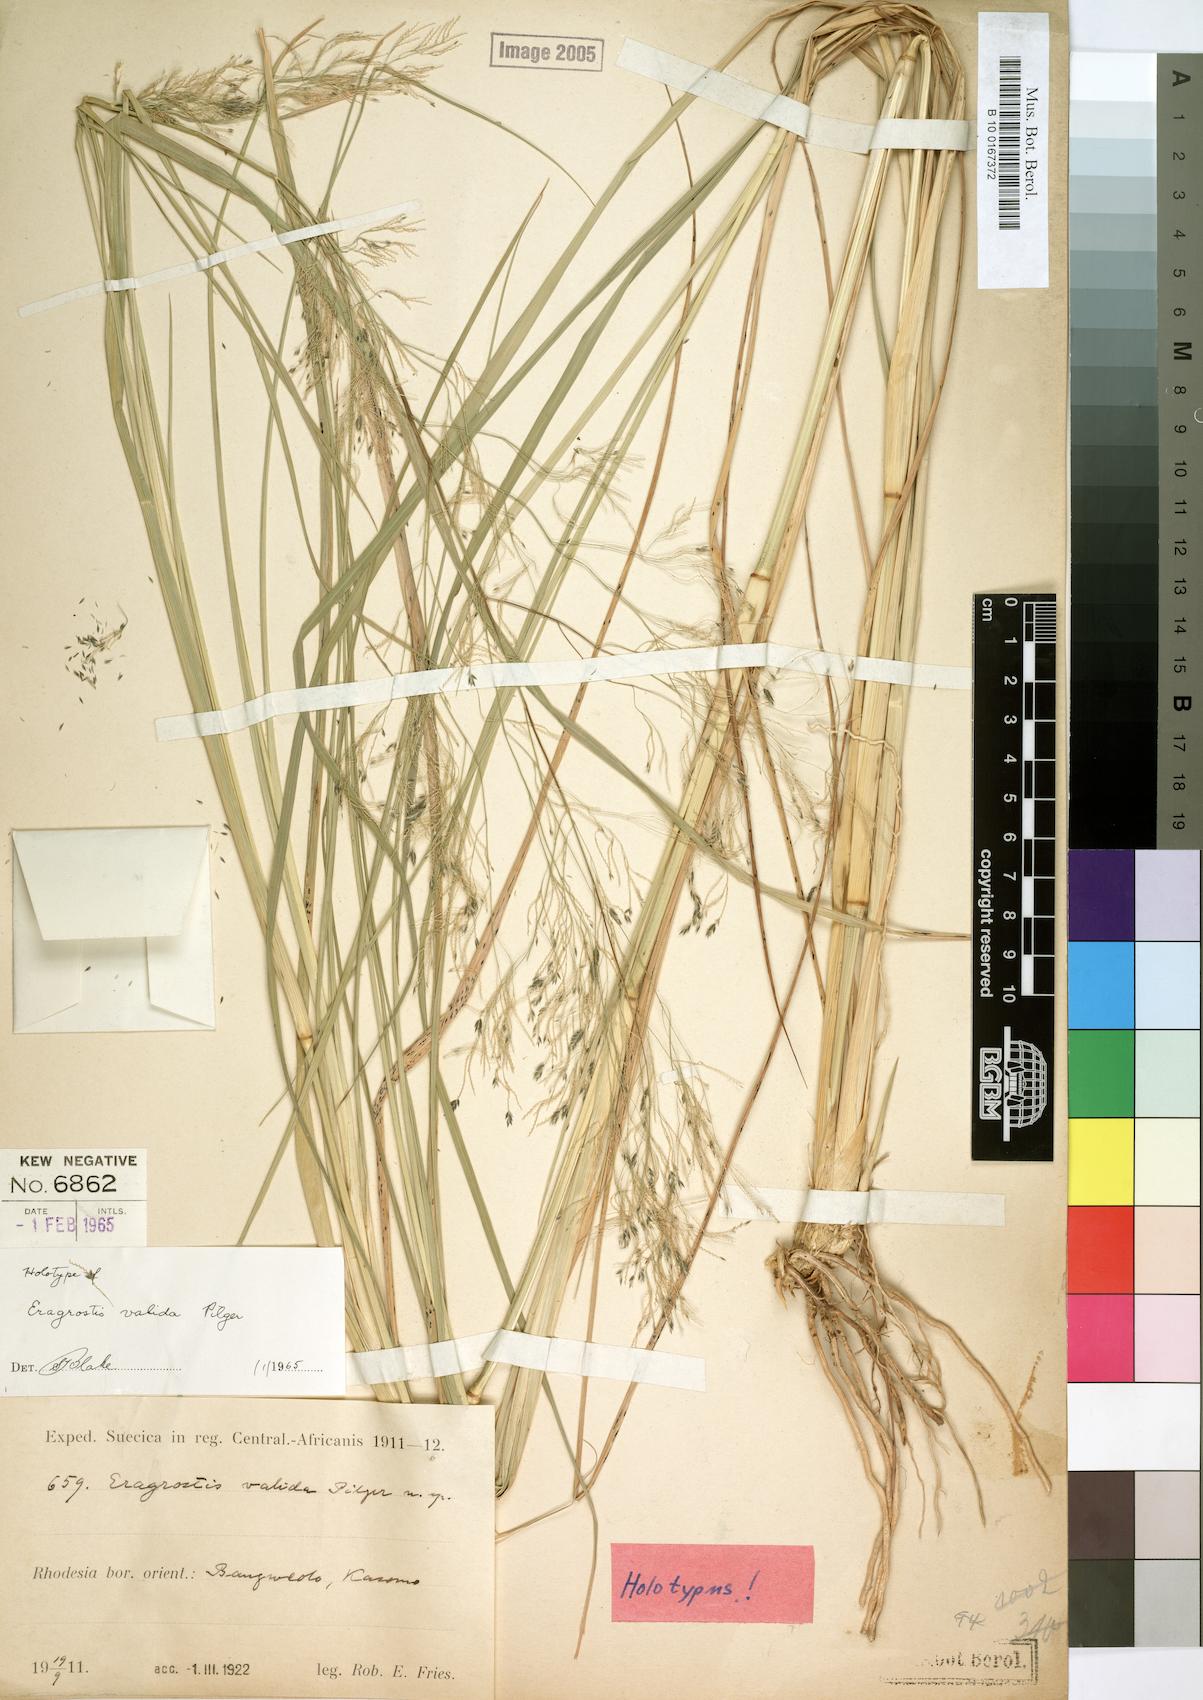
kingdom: Plantae
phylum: Tracheophyta
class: Liliopsida
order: Poales
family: Poaceae
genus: Eragrostis
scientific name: Eragrostis friesii
